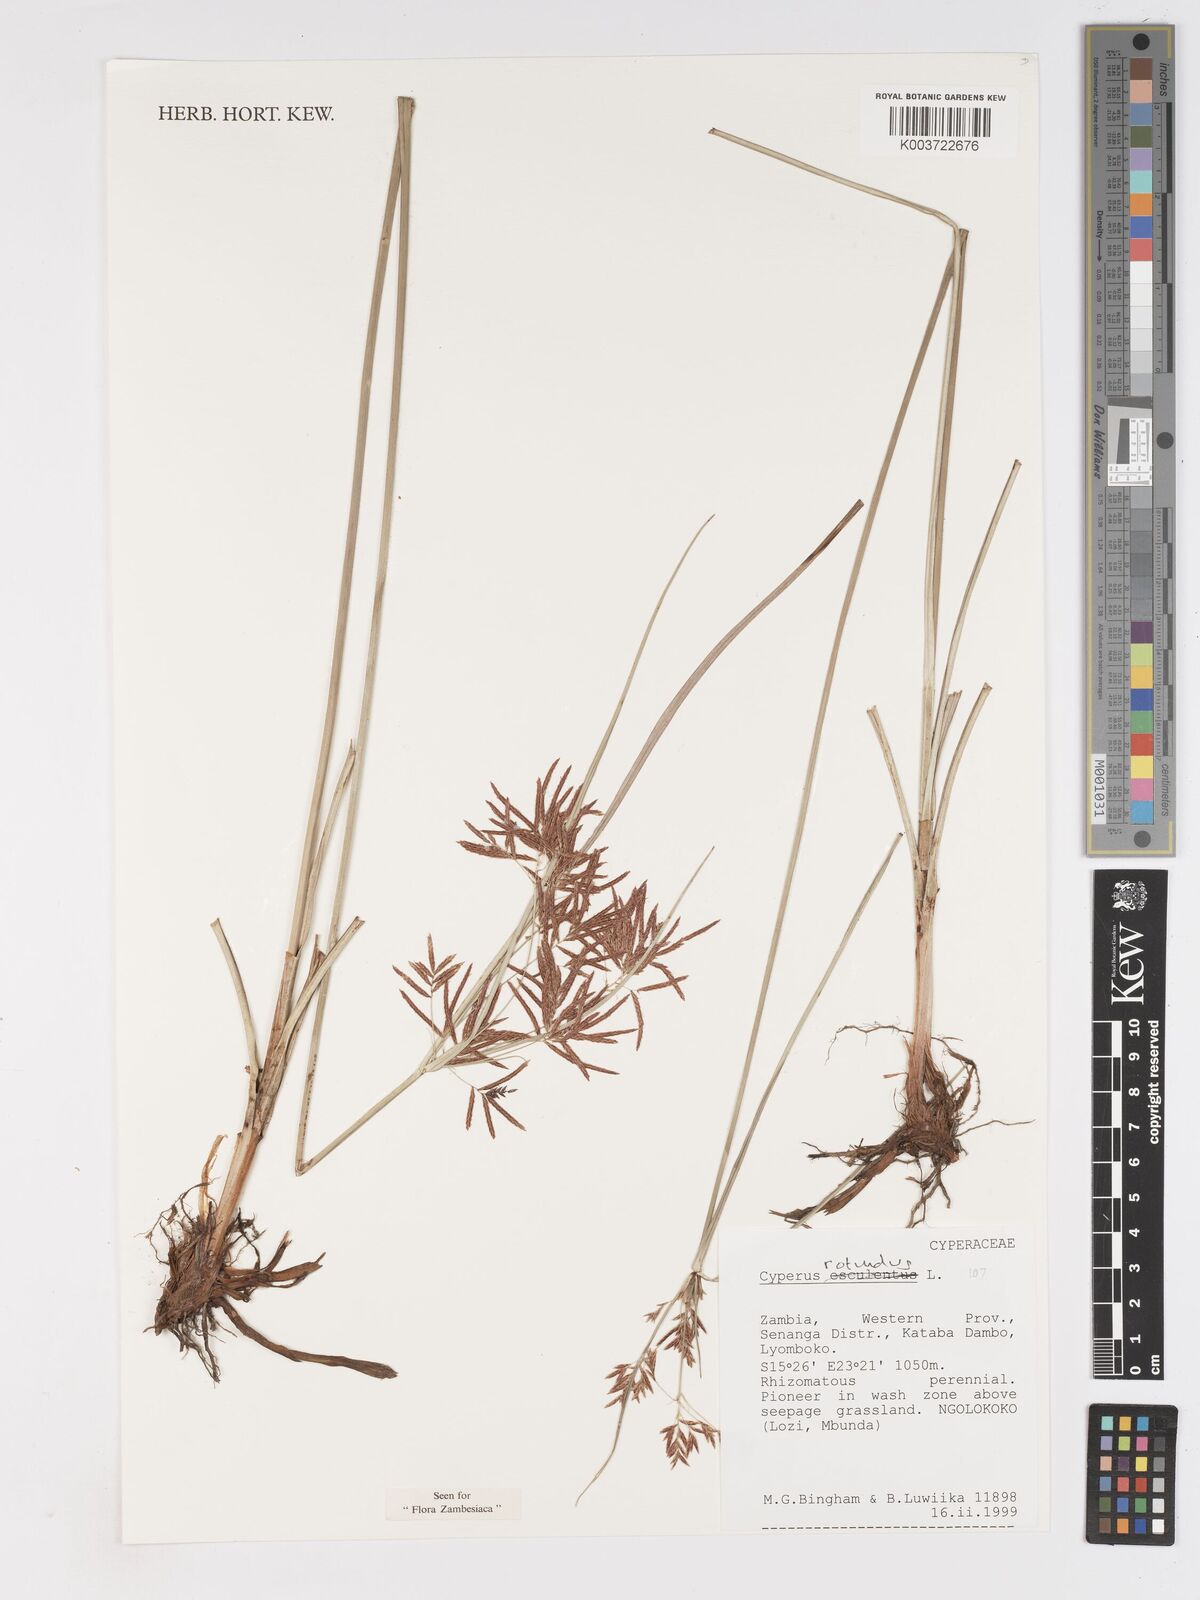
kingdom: Plantae
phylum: Tracheophyta
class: Liliopsida
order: Poales
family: Cyperaceae
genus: Cyperus
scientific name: Cyperus rotundus
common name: Nutgrass
